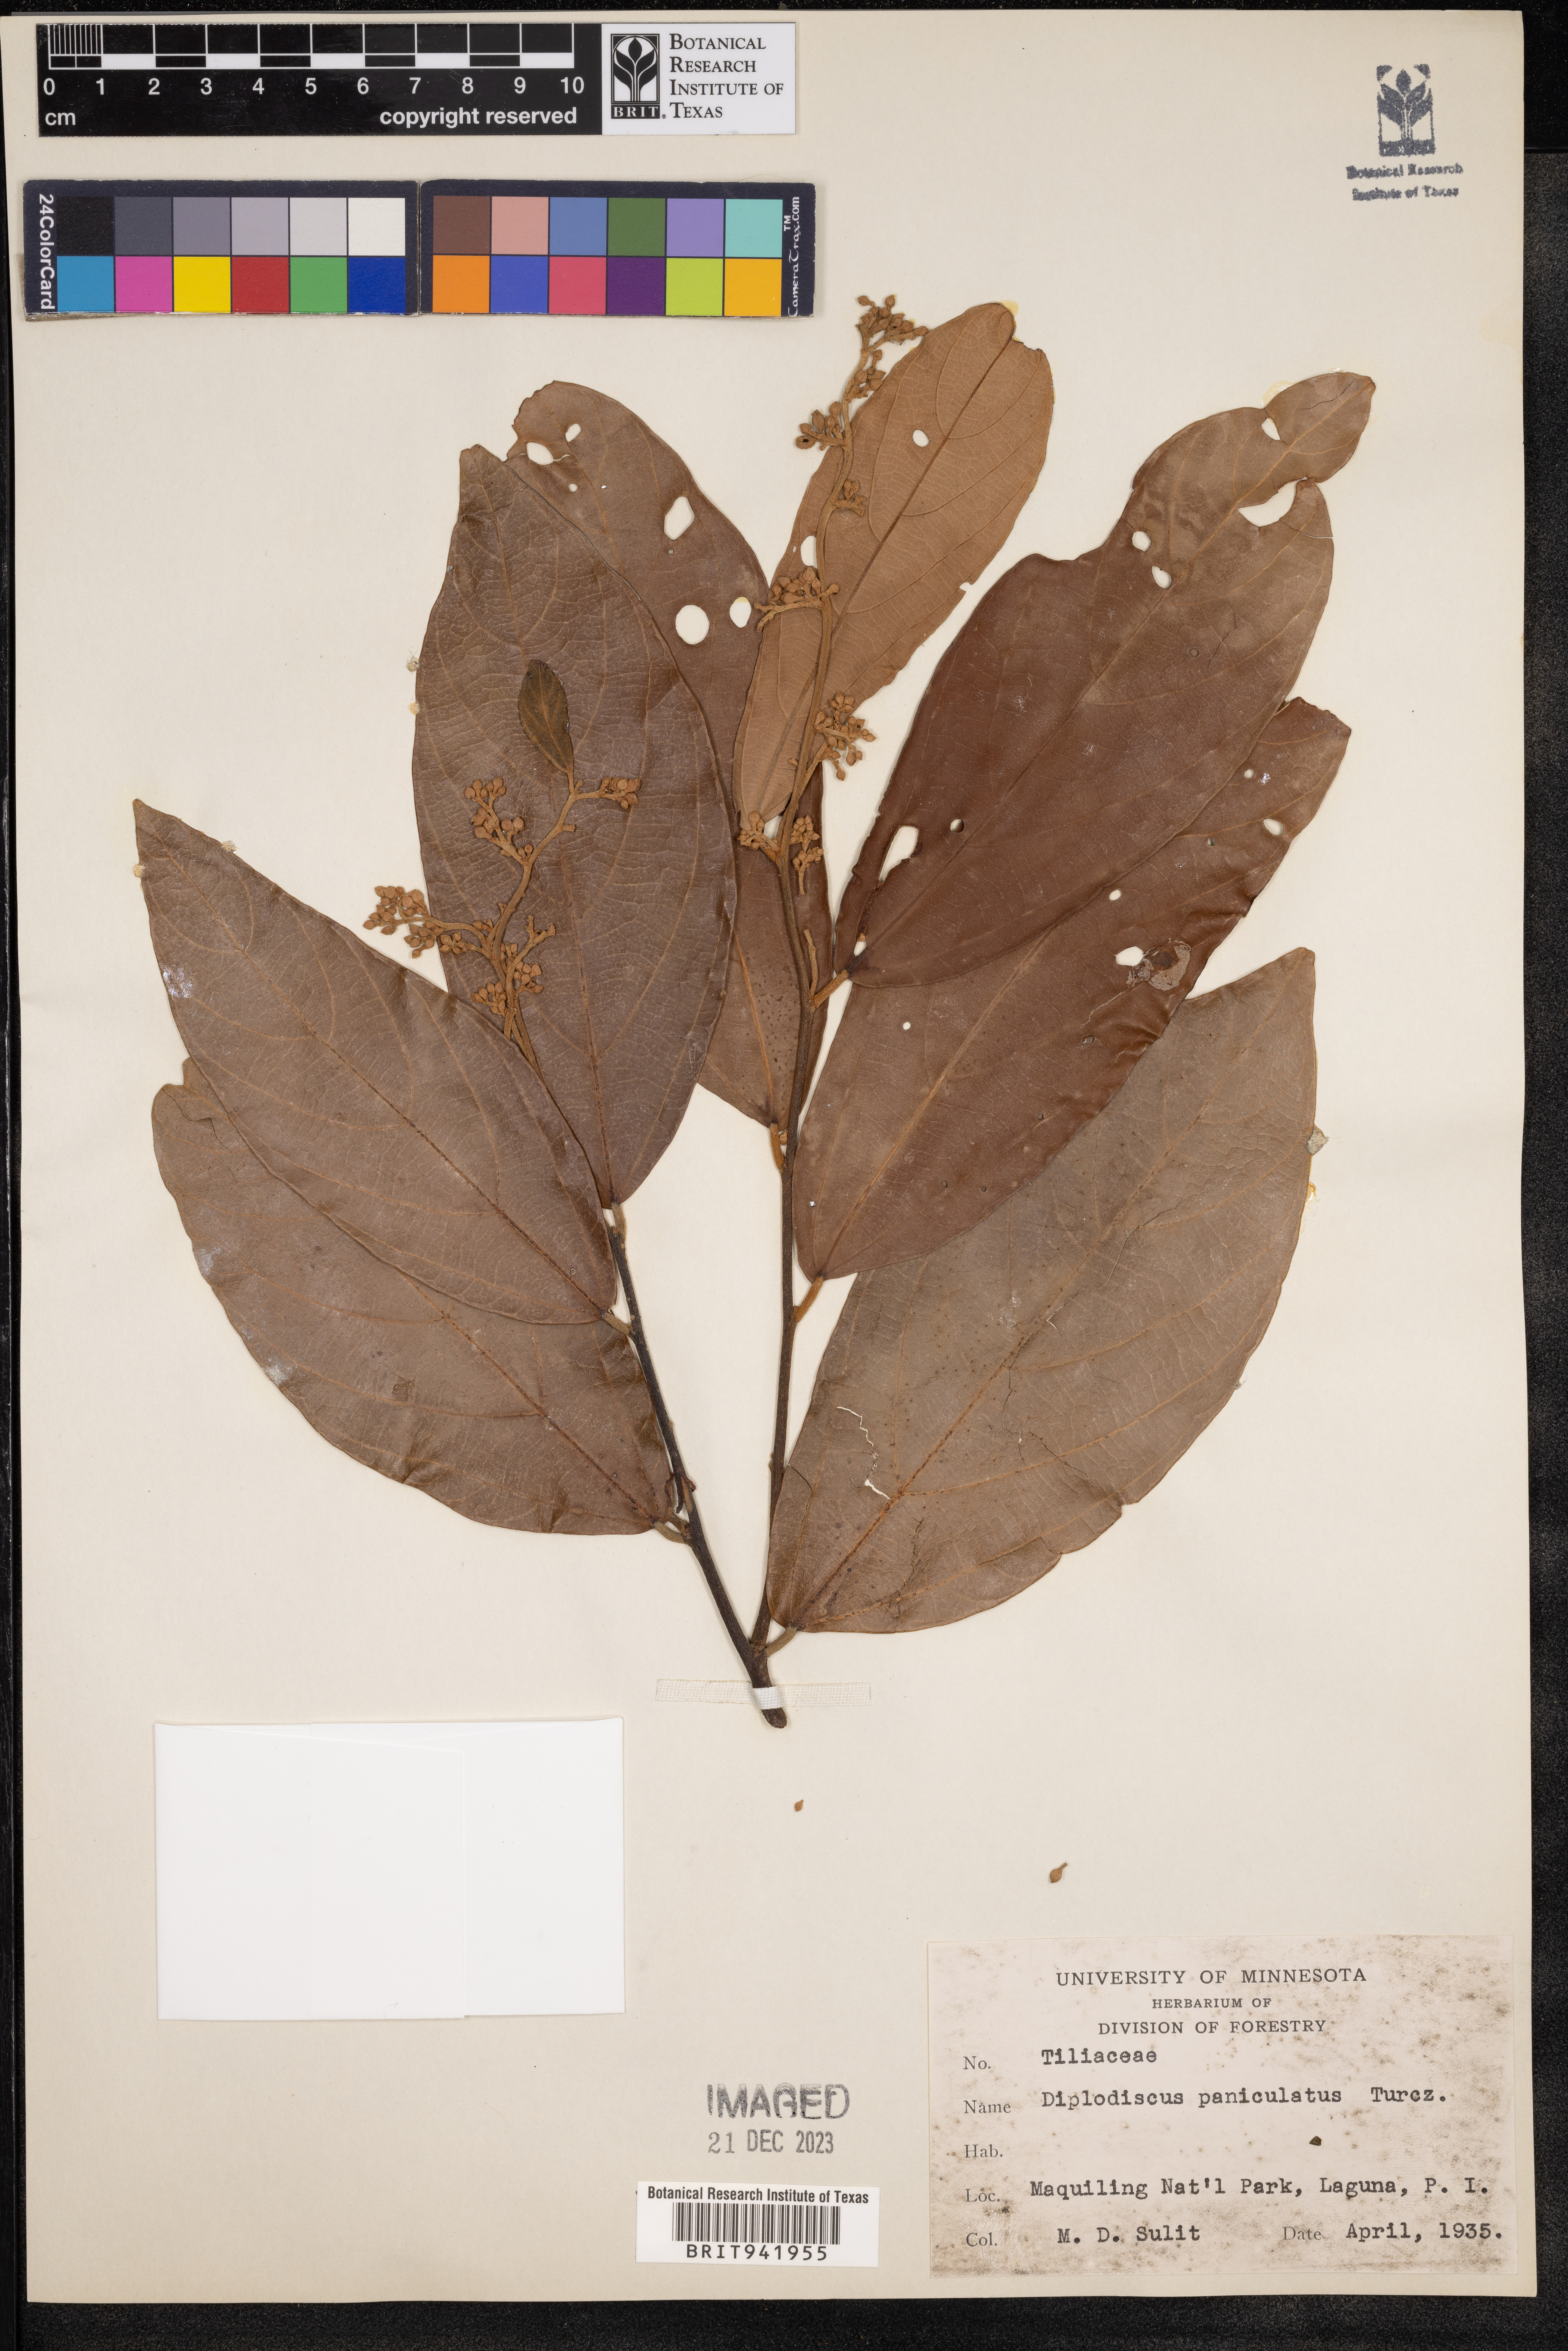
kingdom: Plantae
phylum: Tracheophyta
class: Magnoliopsida
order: Malvales
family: Malvaceae
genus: Diplodiscus
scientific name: Diplodiscus
